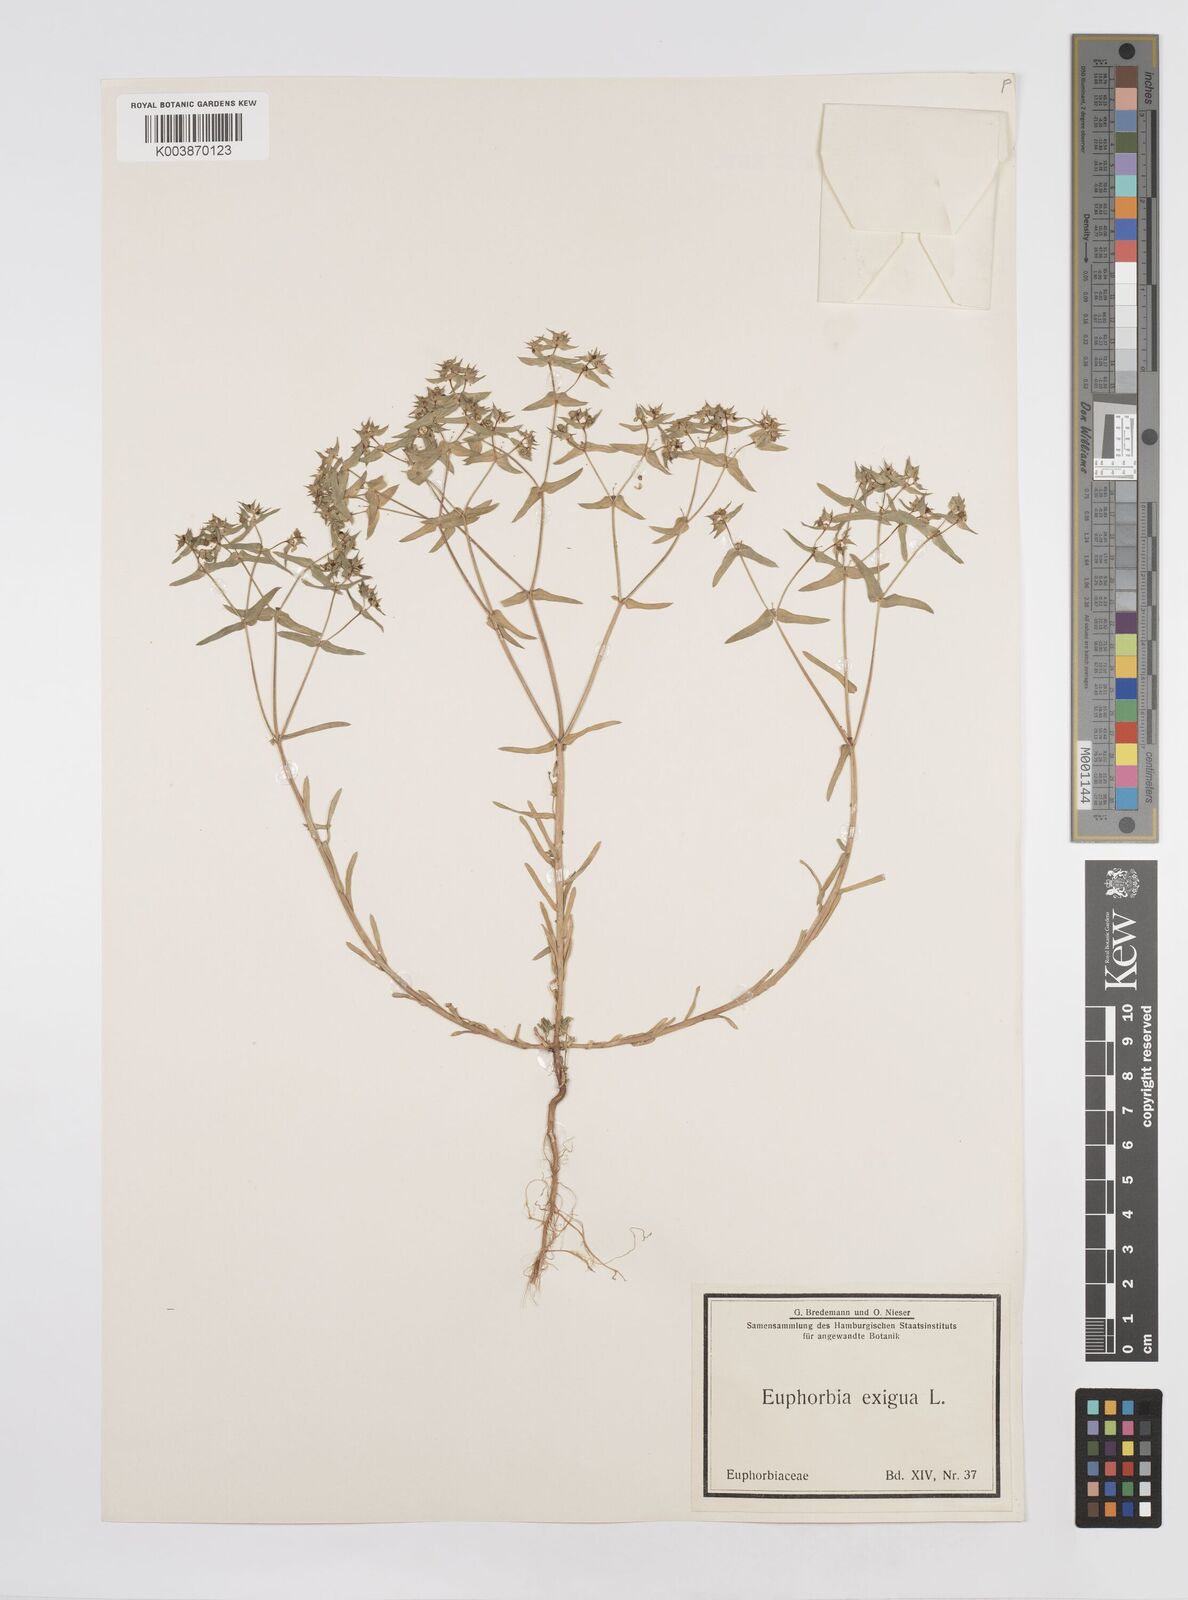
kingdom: Plantae
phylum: Tracheophyta
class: Magnoliopsida
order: Malpighiales
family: Euphorbiaceae
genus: Euphorbia
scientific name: Euphorbia exigua
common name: Dwarf spurge
